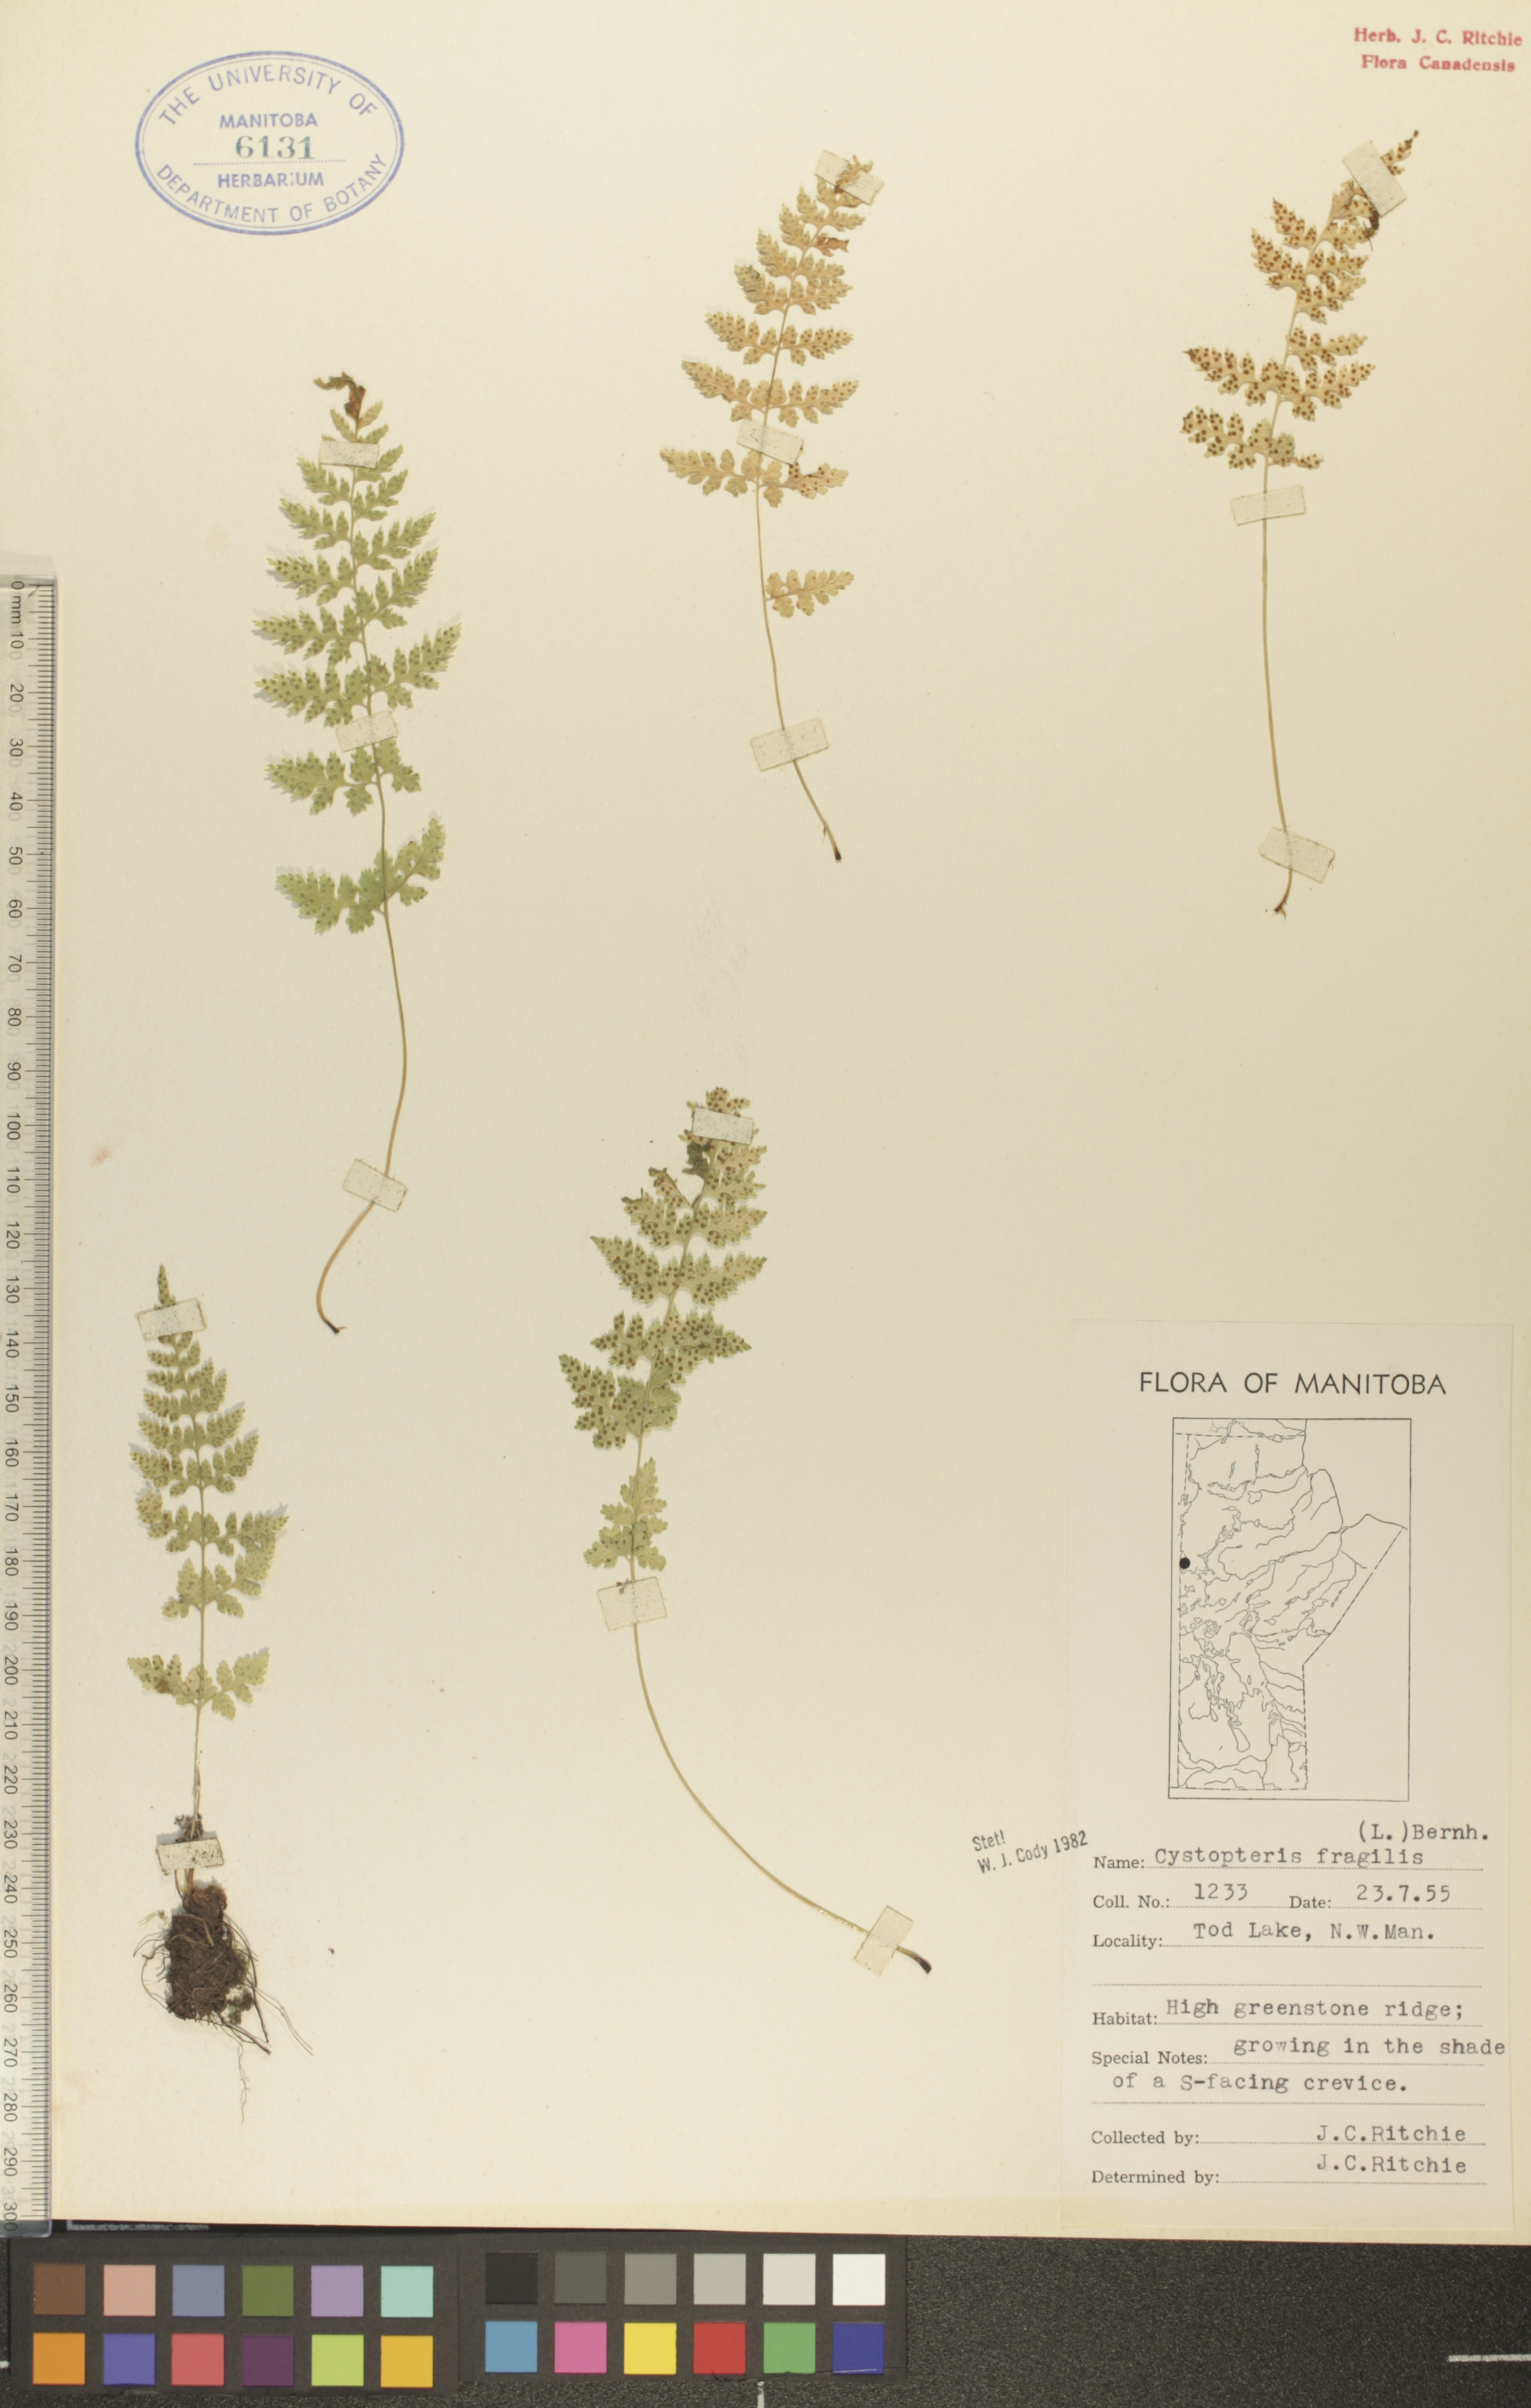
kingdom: Plantae
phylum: Tracheophyta
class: Polypodiopsida
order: Polypodiales
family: Cystopteridaceae
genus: Cystopteris
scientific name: Cystopteris fragilis
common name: Brittle bladder fern
